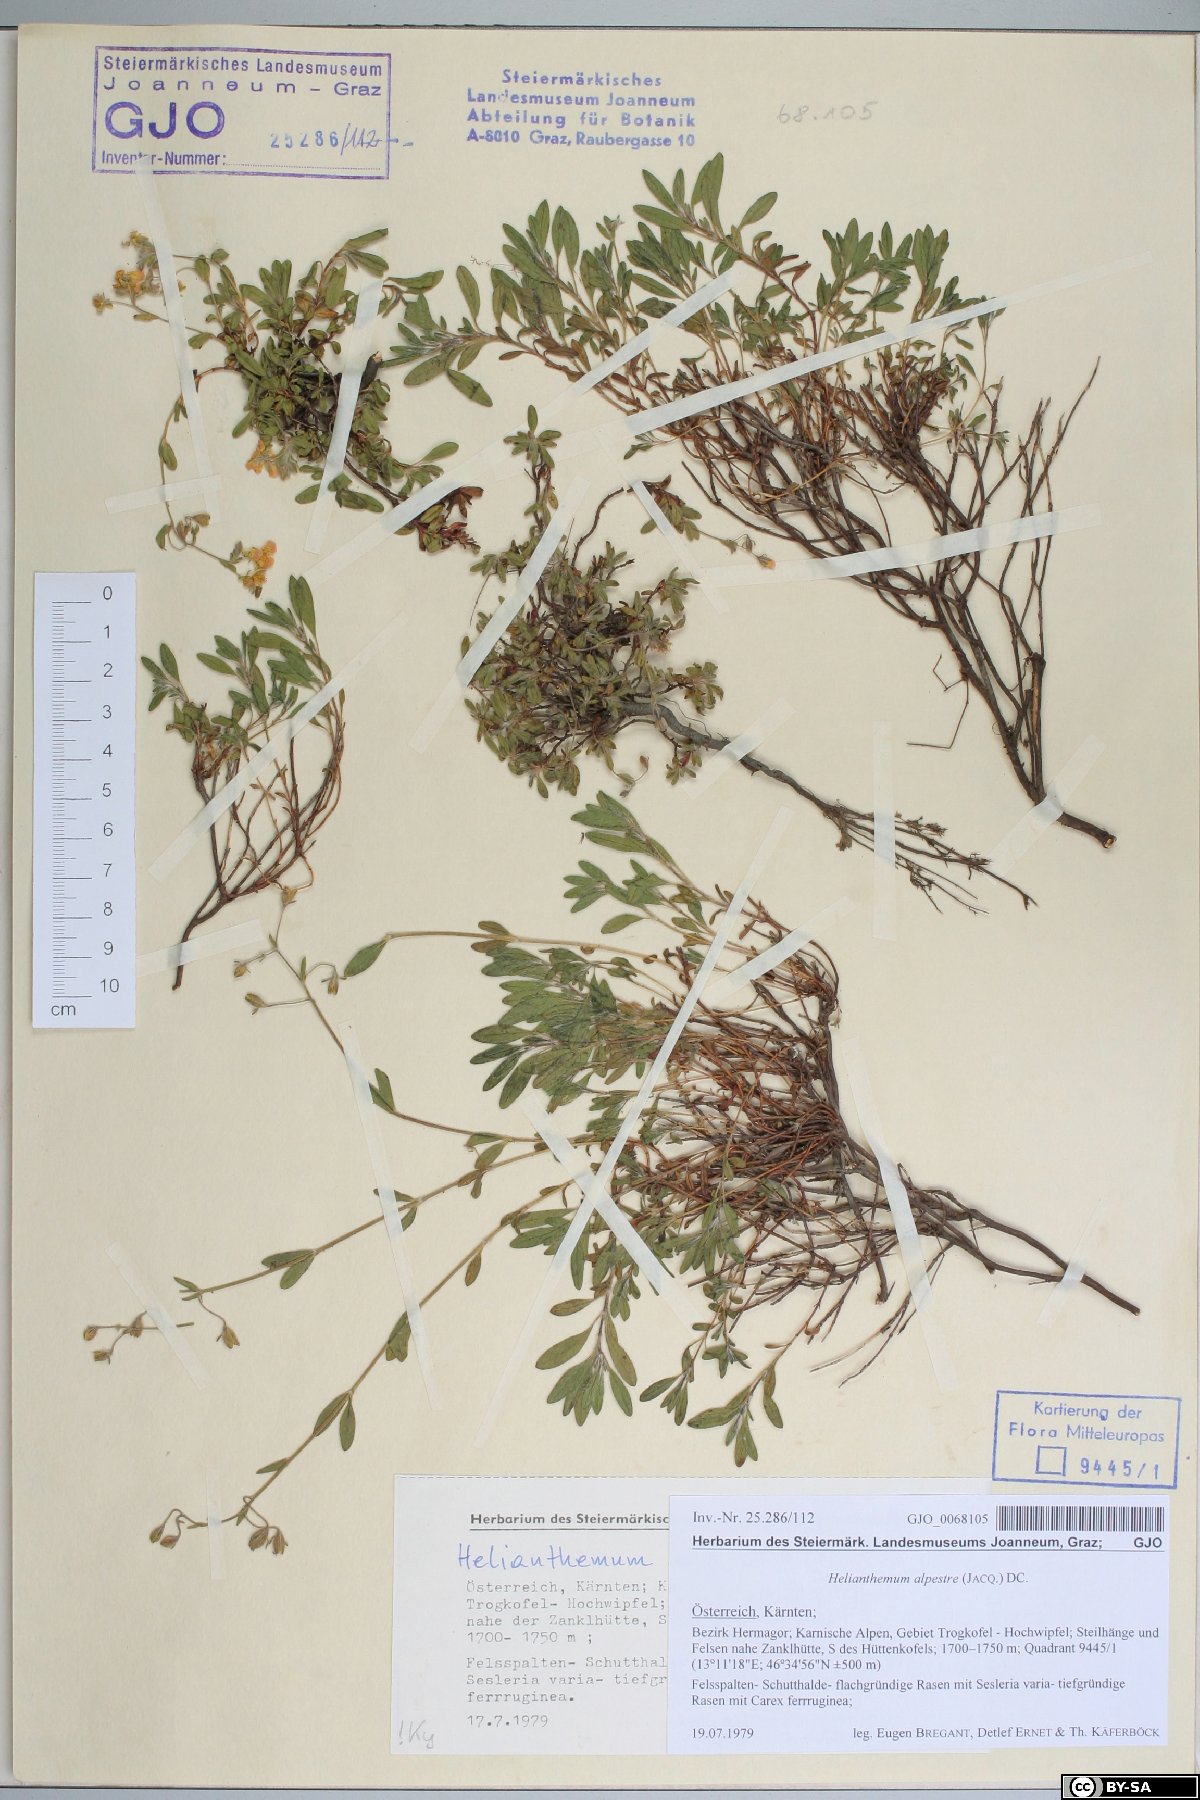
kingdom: Plantae
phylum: Tracheophyta
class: Magnoliopsida
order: Malvales
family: Cistaceae
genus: Helianthemum
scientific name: Helianthemum alpestre
